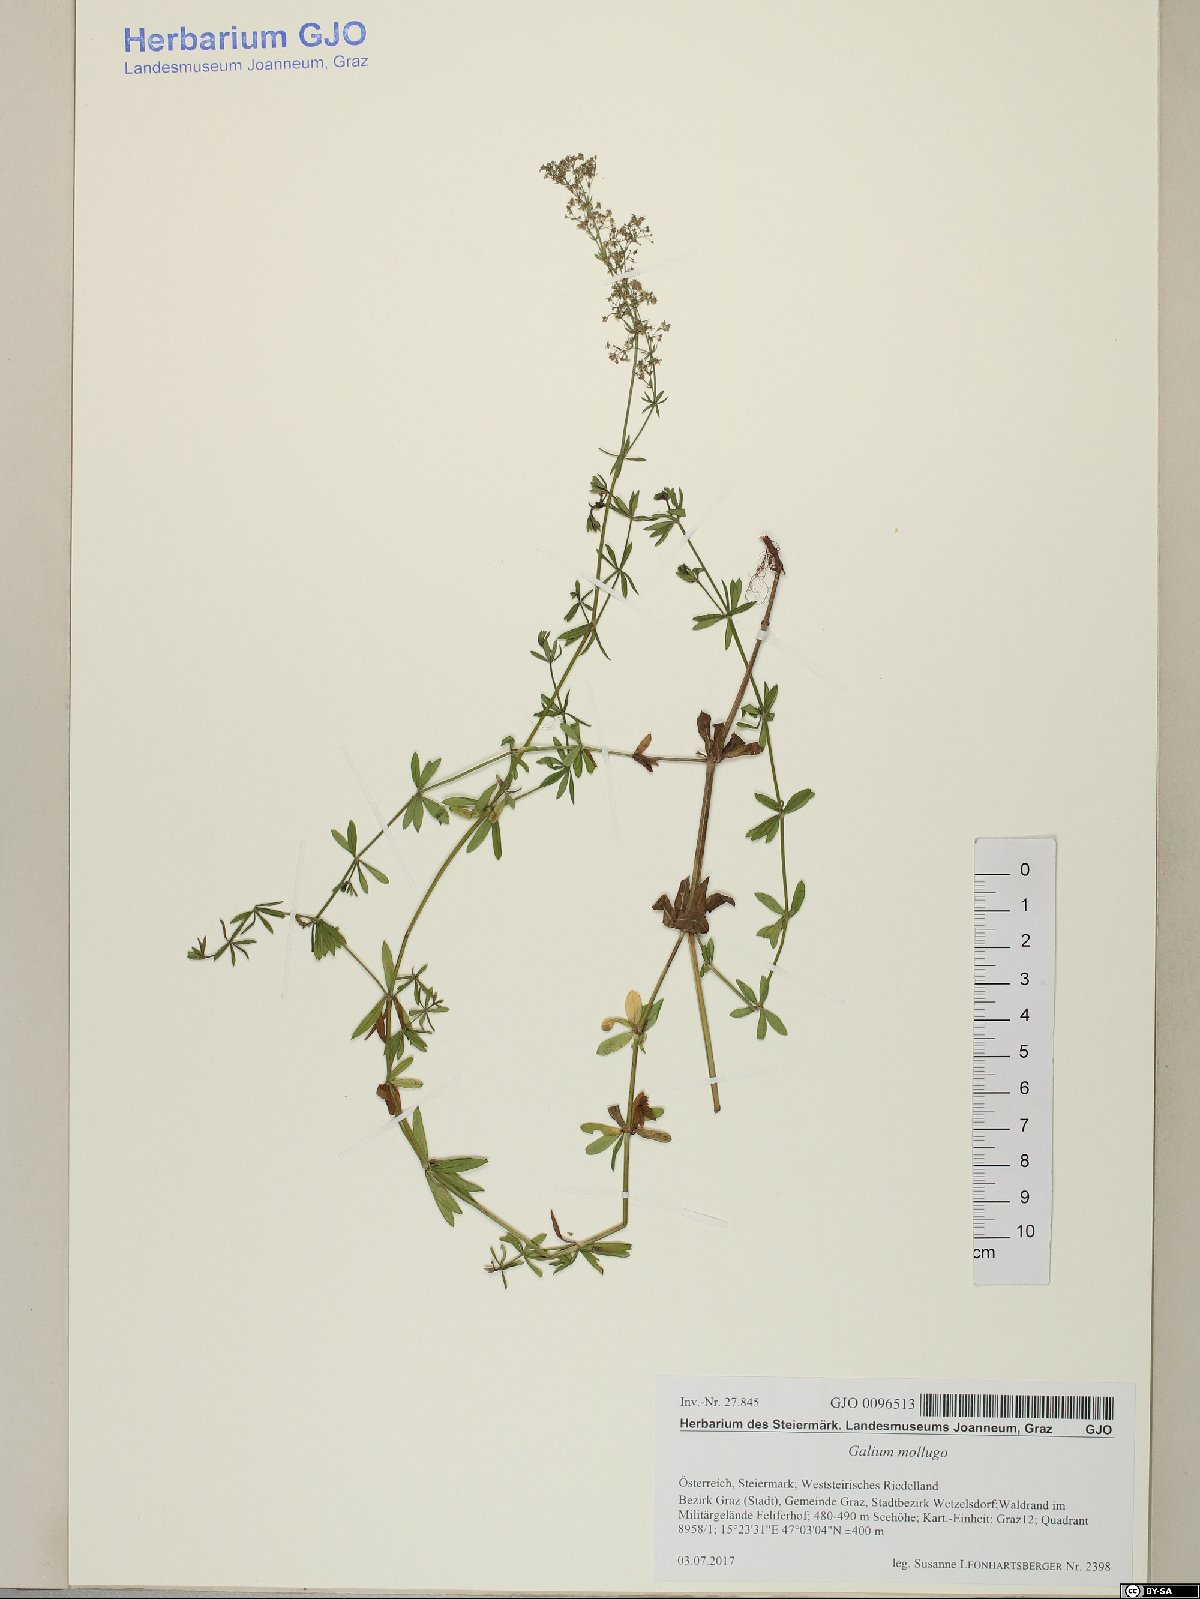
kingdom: Plantae
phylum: Tracheophyta
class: Magnoliopsida
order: Gentianales
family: Rubiaceae
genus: Galium
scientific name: Galium mollugo
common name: Hedge bedstraw
